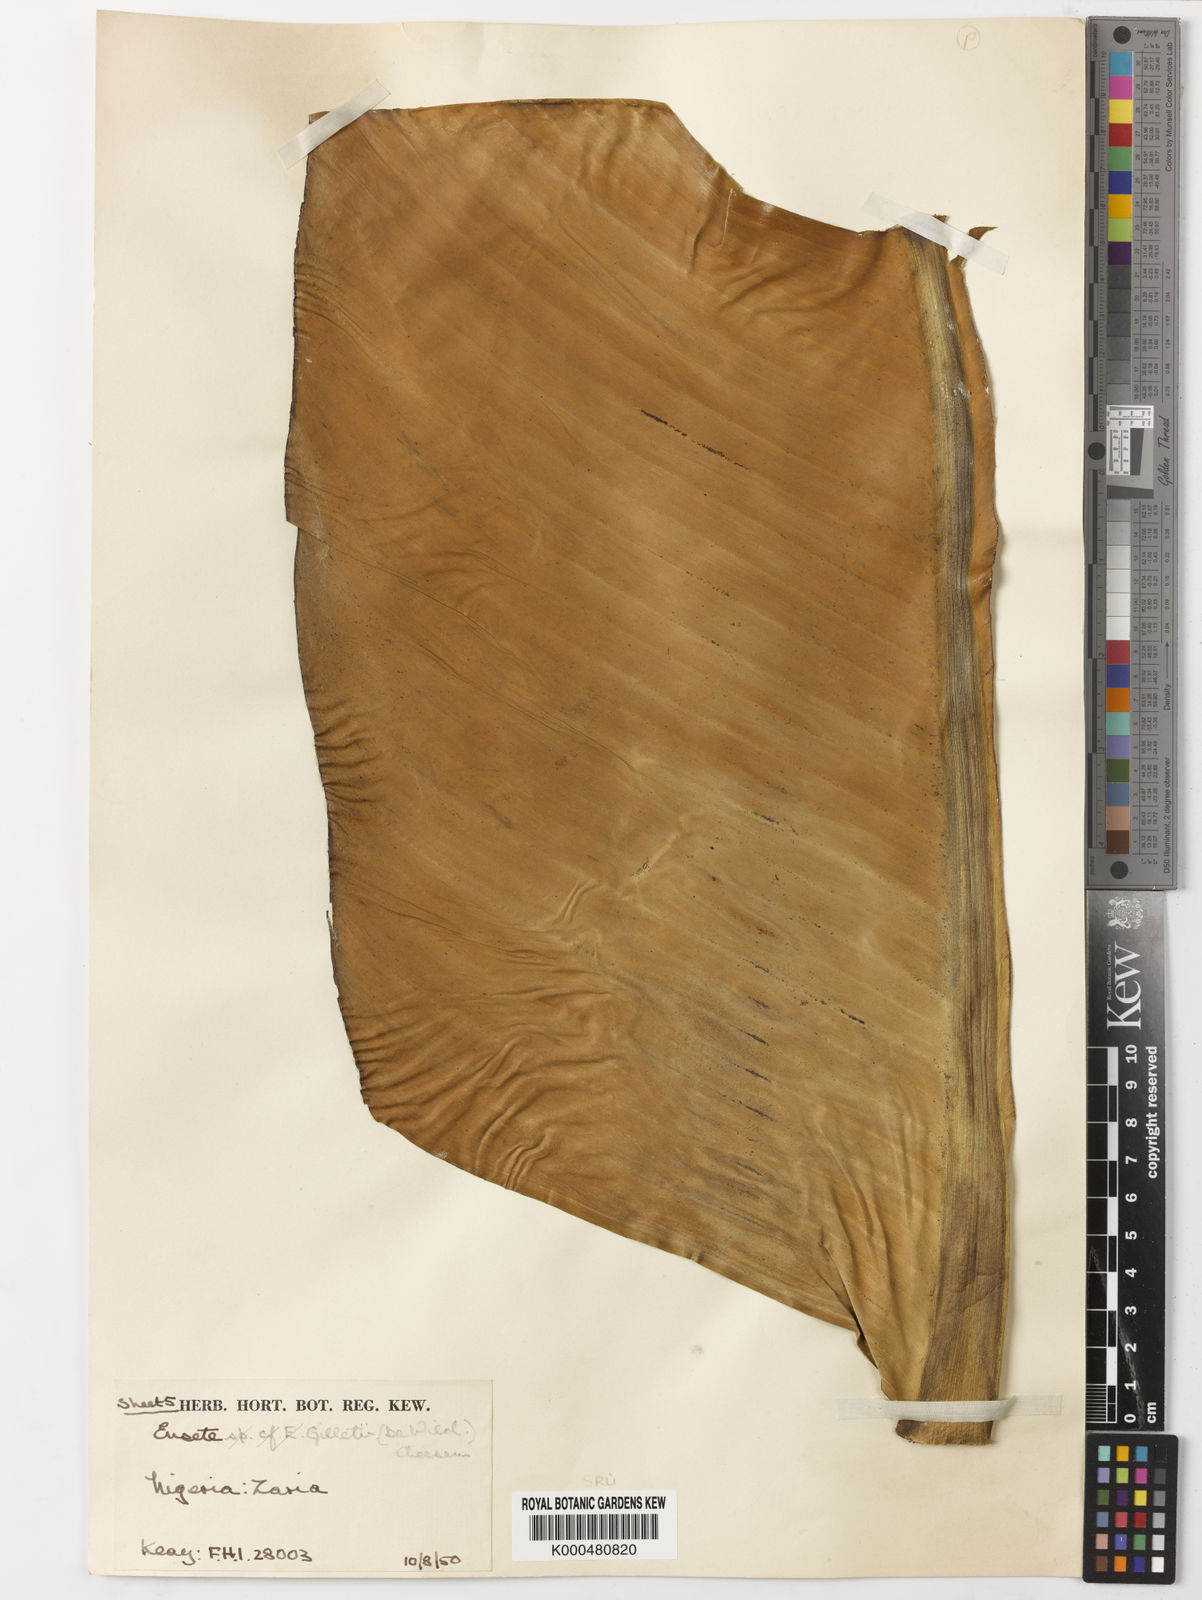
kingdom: Plantae
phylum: Tracheophyta
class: Liliopsida
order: Zingiberales
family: Musaceae
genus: Ensete
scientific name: Ensete livingstonianum
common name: Livingston's banana
